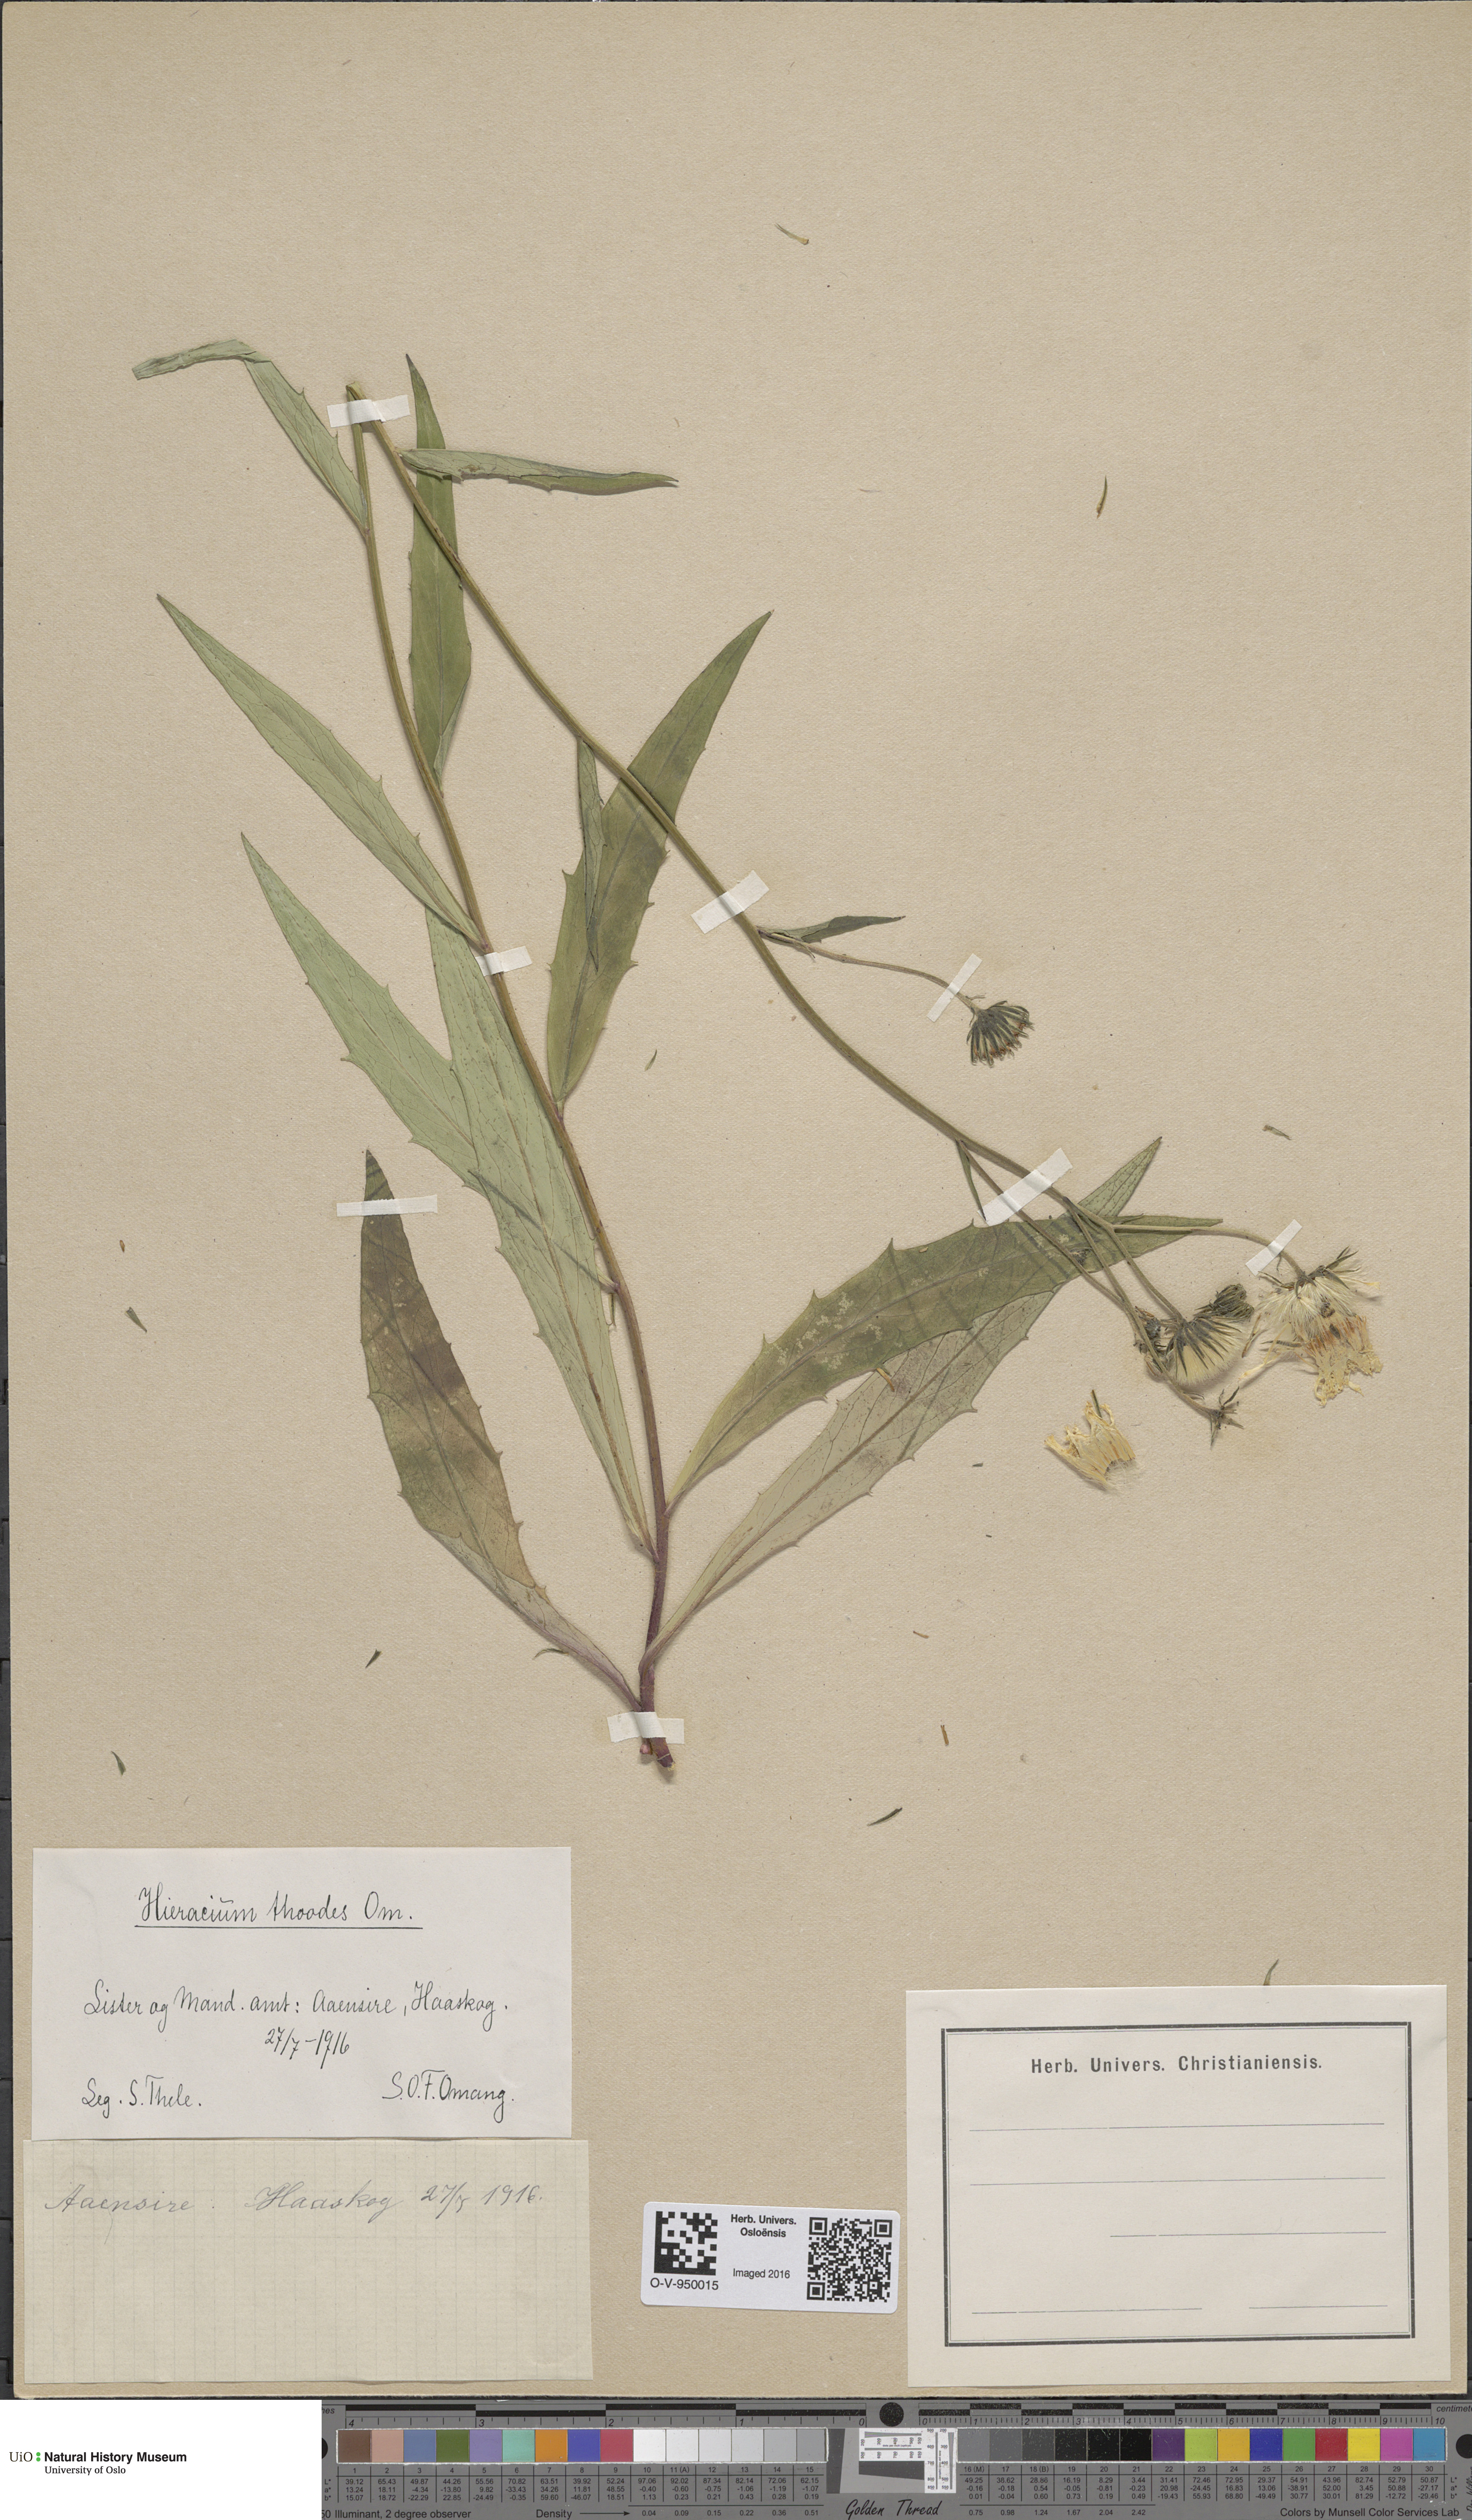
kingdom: Plantae
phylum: Tracheophyta
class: Magnoliopsida
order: Asterales
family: Asteraceae
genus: Hieracium
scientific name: Hieracium
